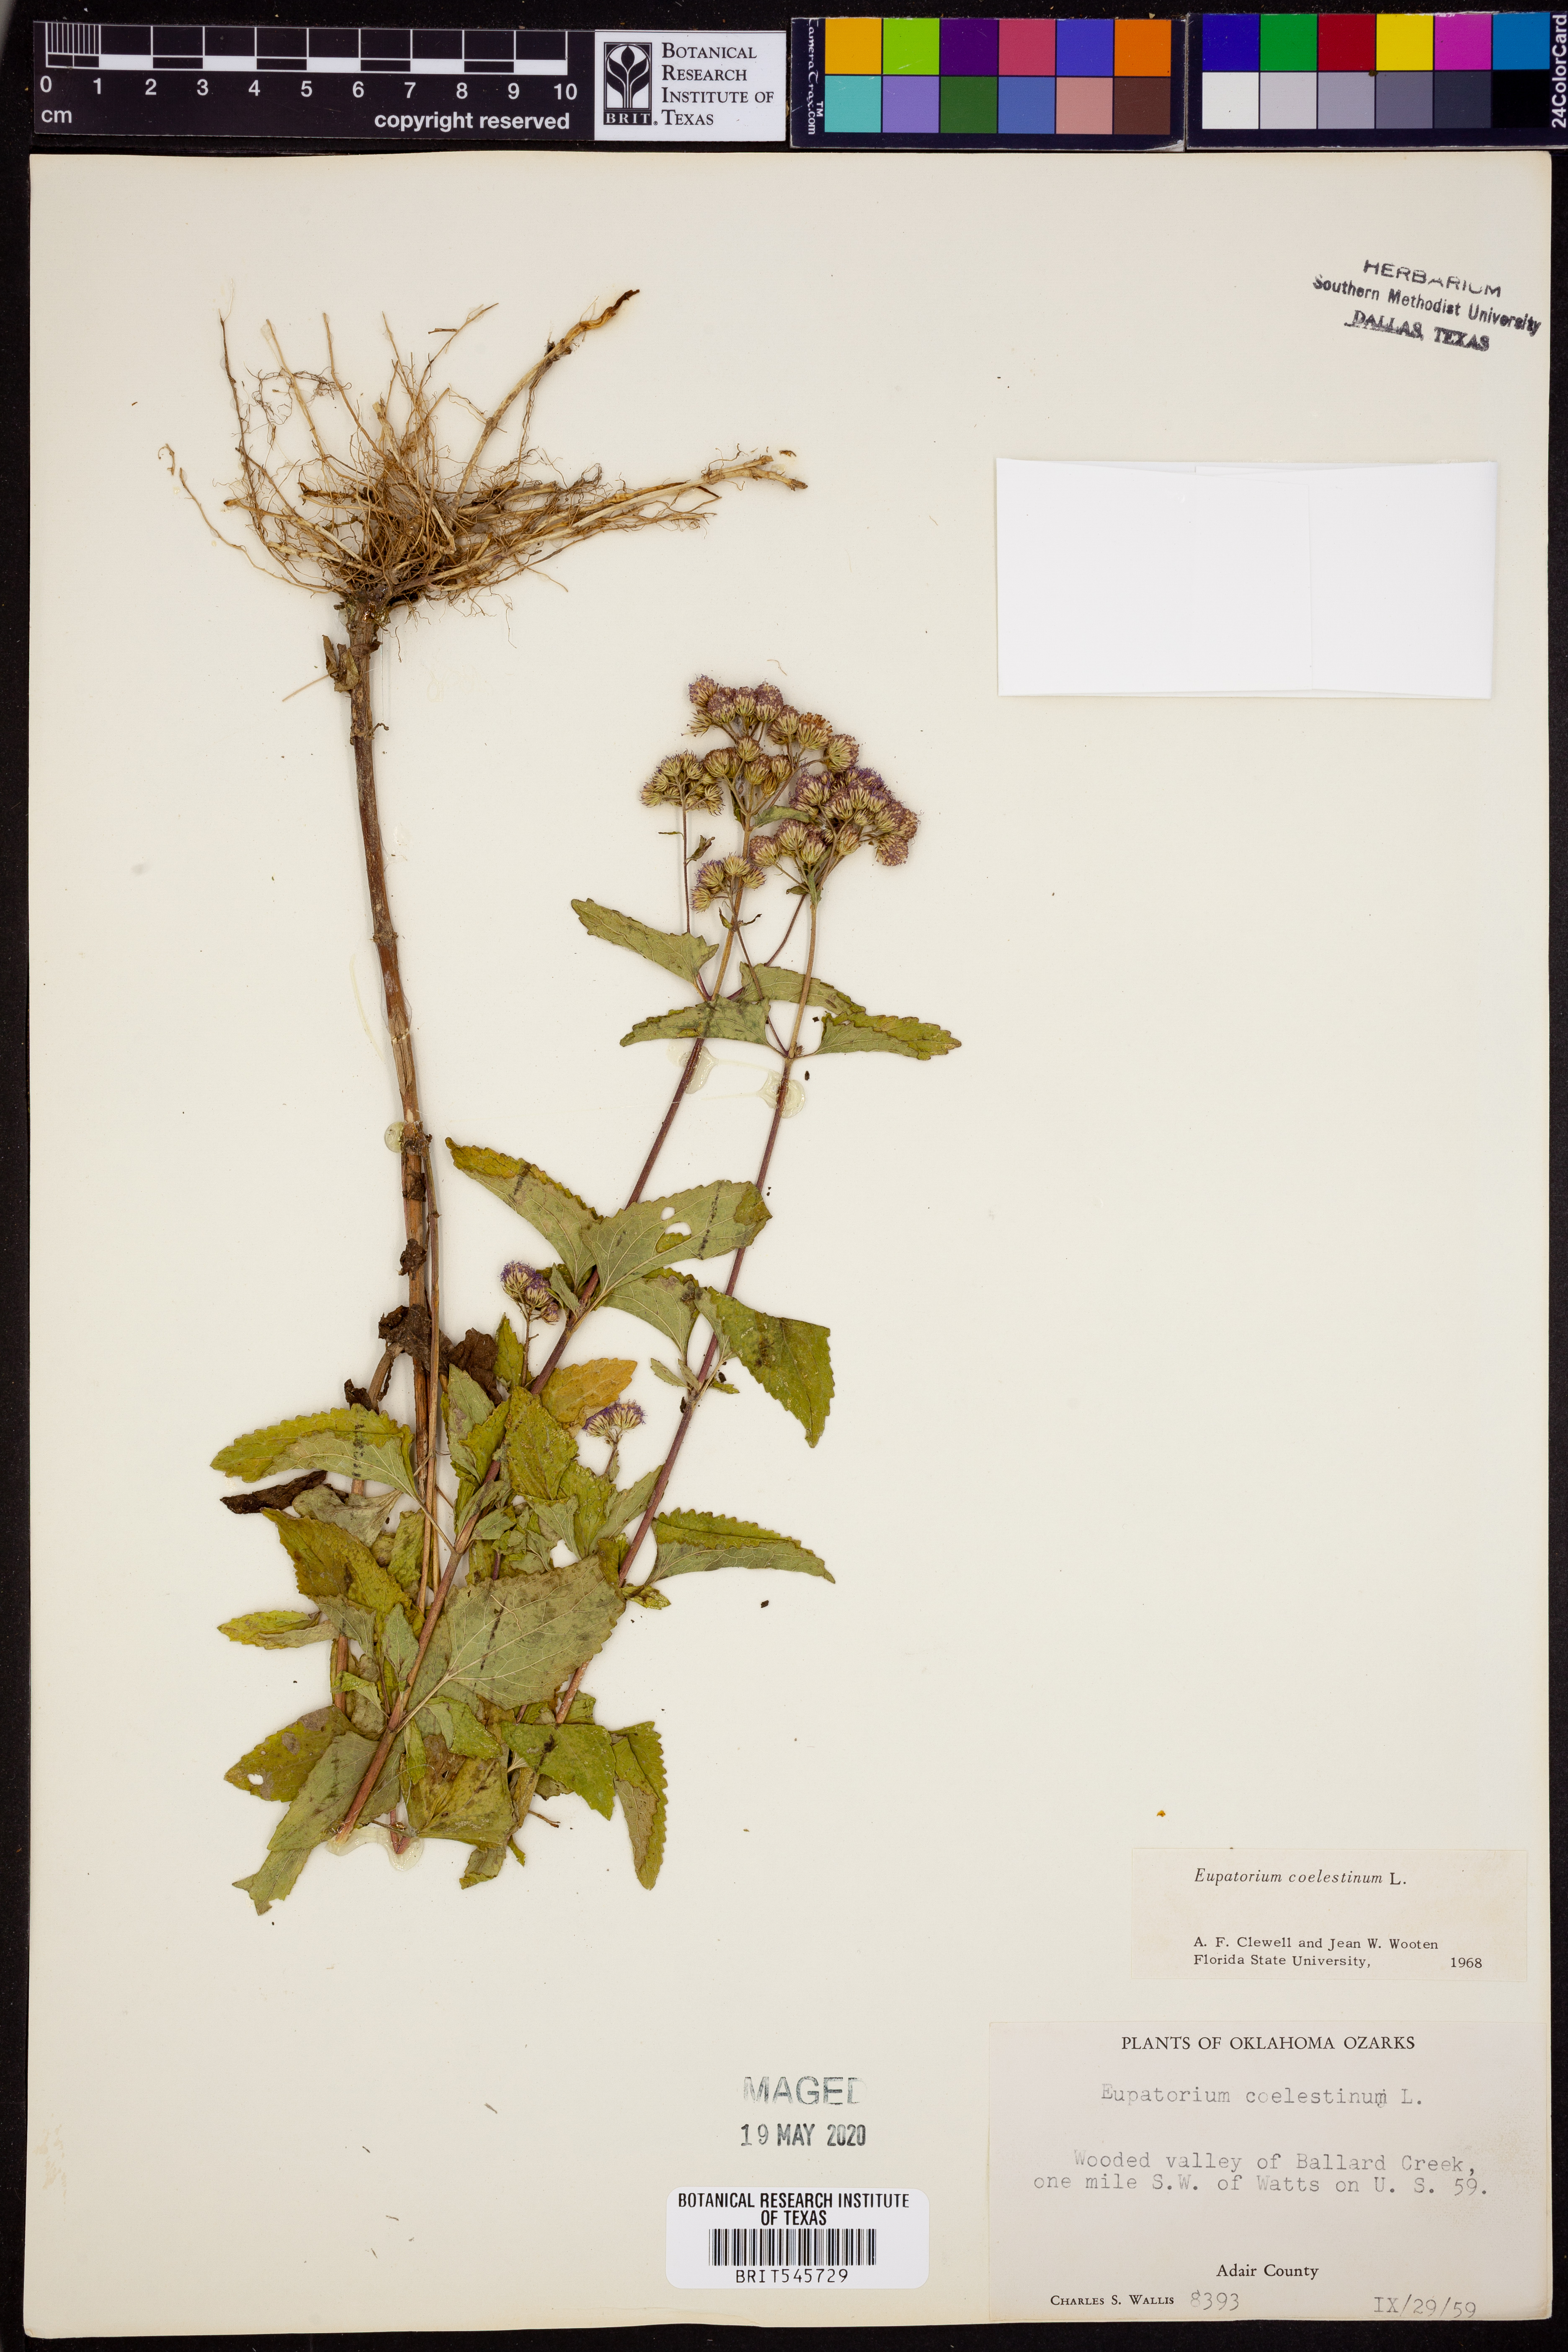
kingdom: Plantae
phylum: Tracheophyta
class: Magnoliopsida
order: Asterales
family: Asteraceae
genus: Conoclinium
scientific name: Conoclinium coelestinum
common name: Blue mistflower
